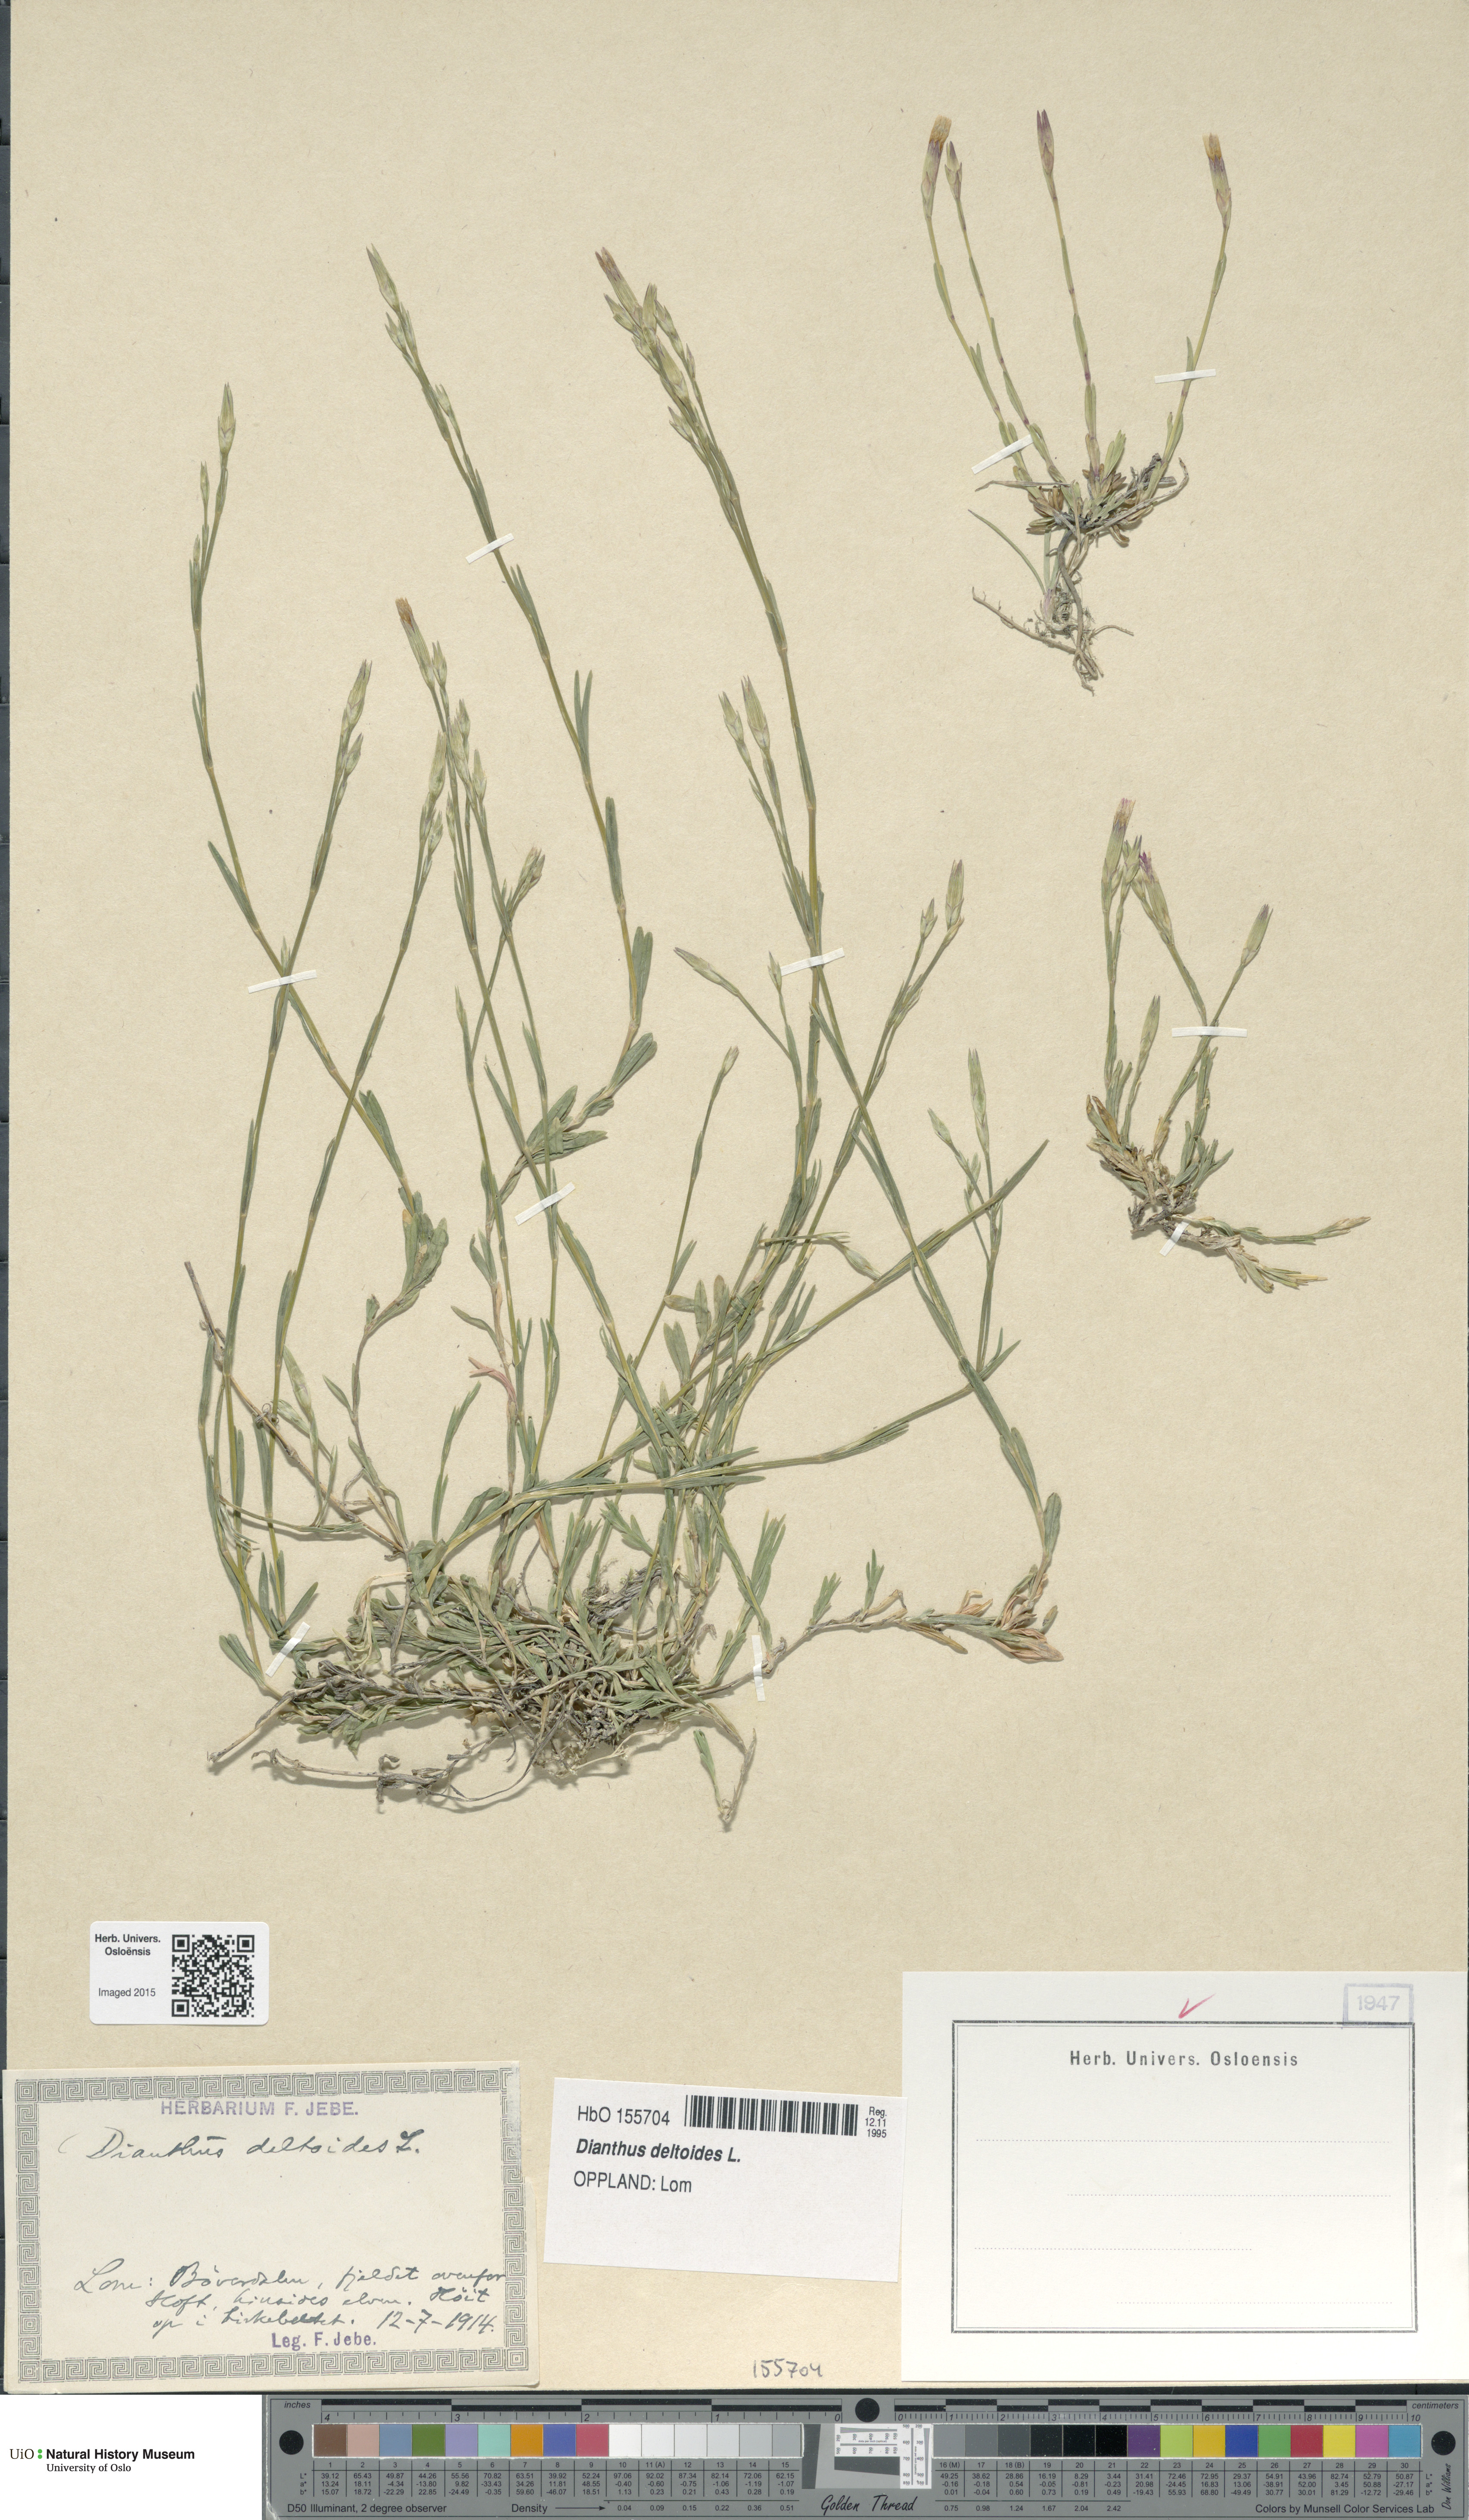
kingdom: Plantae
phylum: Tracheophyta
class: Magnoliopsida
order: Caryophyllales
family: Caryophyllaceae
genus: Dianthus
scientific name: Dianthus deltoides
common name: Maiden pink
